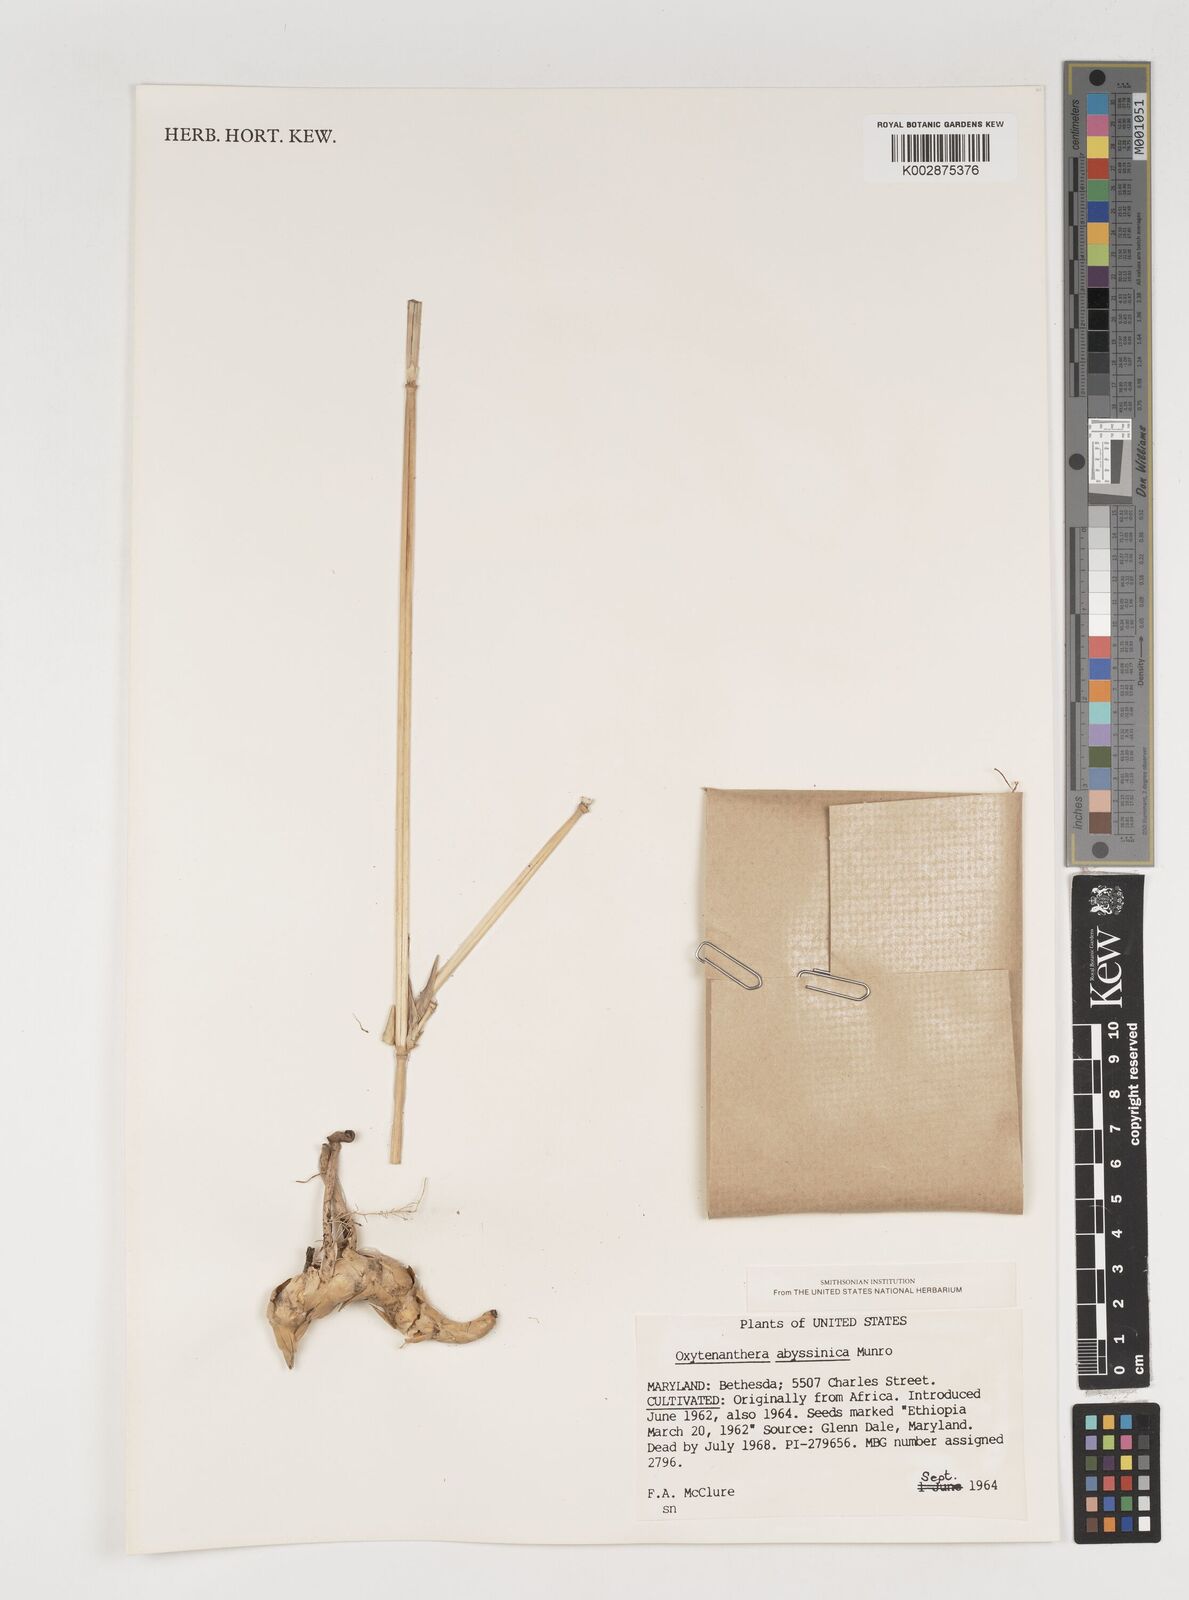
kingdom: Plantae
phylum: Tracheophyta
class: Liliopsida
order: Poales
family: Poaceae
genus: Oxytenanthera
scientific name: Oxytenanthera abyssinica
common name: Wine bamboo
